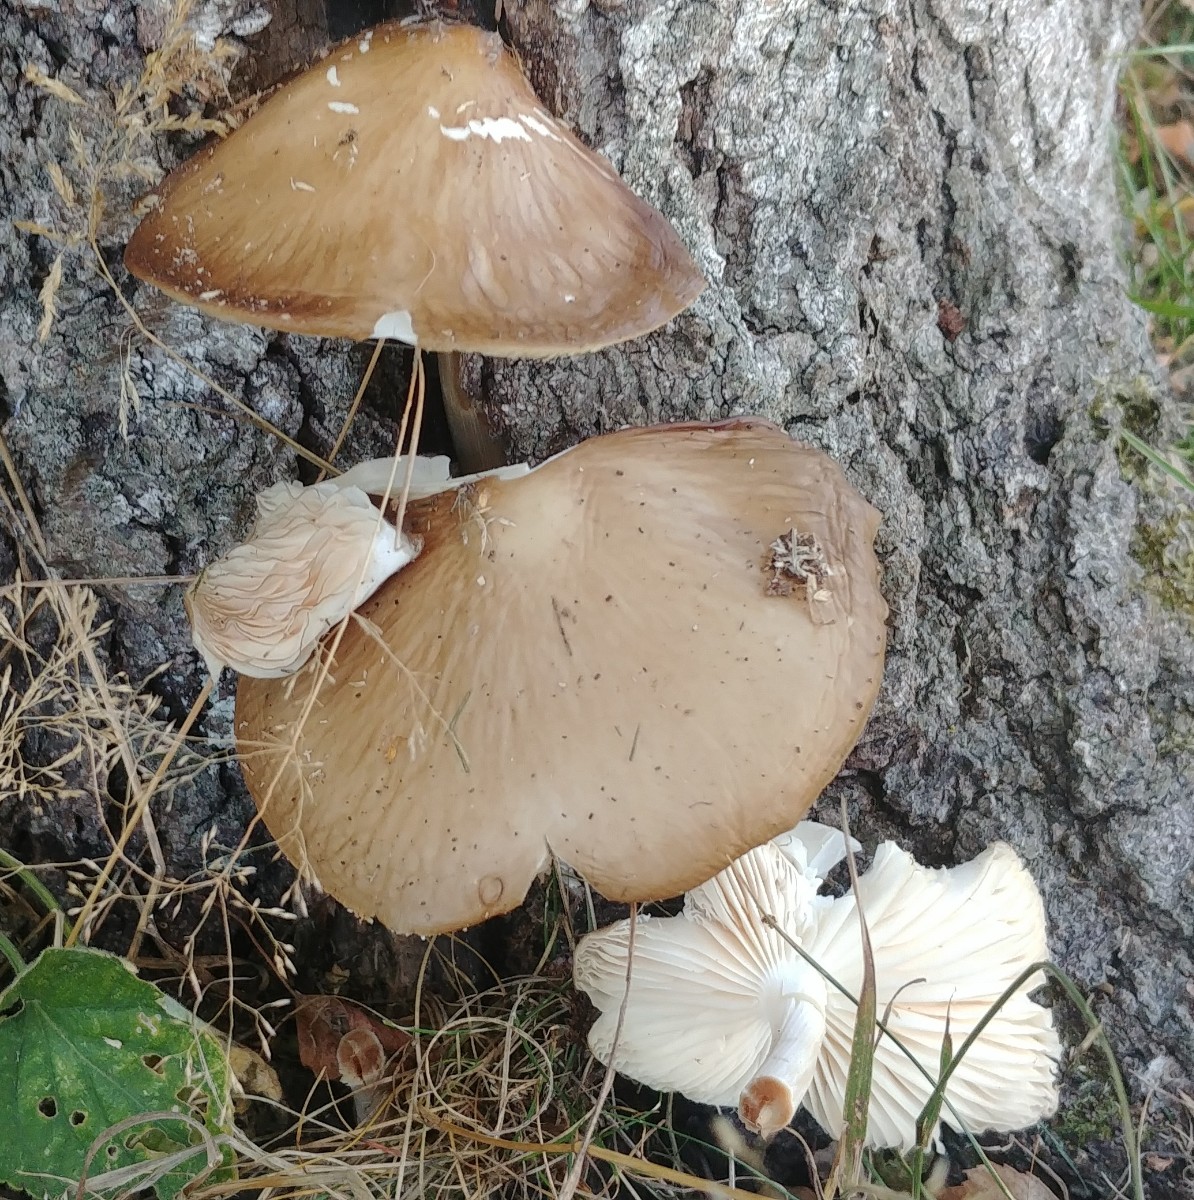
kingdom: Fungi
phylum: Basidiomycota
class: Agaricomycetes
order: Agaricales
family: Physalacriaceae
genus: Hymenopellis
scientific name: Hymenopellis radicata
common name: almindelig pælerodshat
